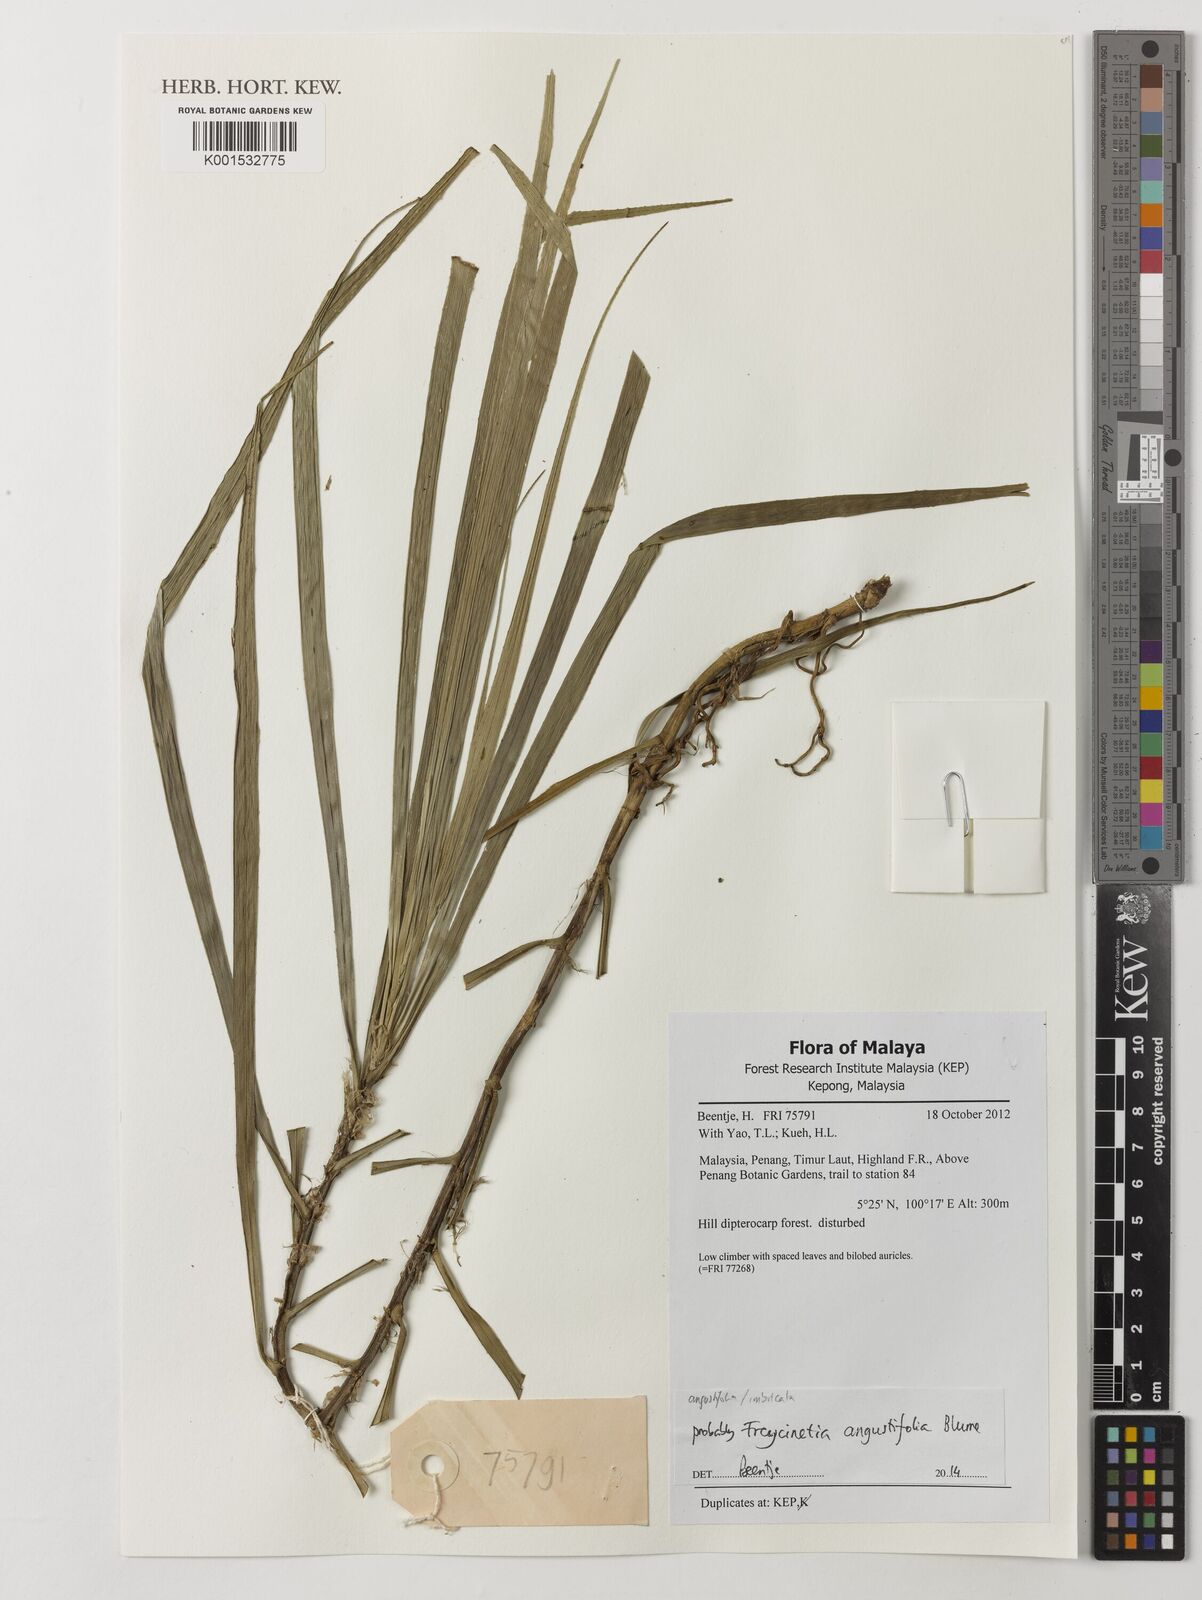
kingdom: Plantae
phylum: Tracheophyta
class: Liliopsida
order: Pandanales
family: Pandanaceae
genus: Freycinetia
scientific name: Freycinetia angustifolia
